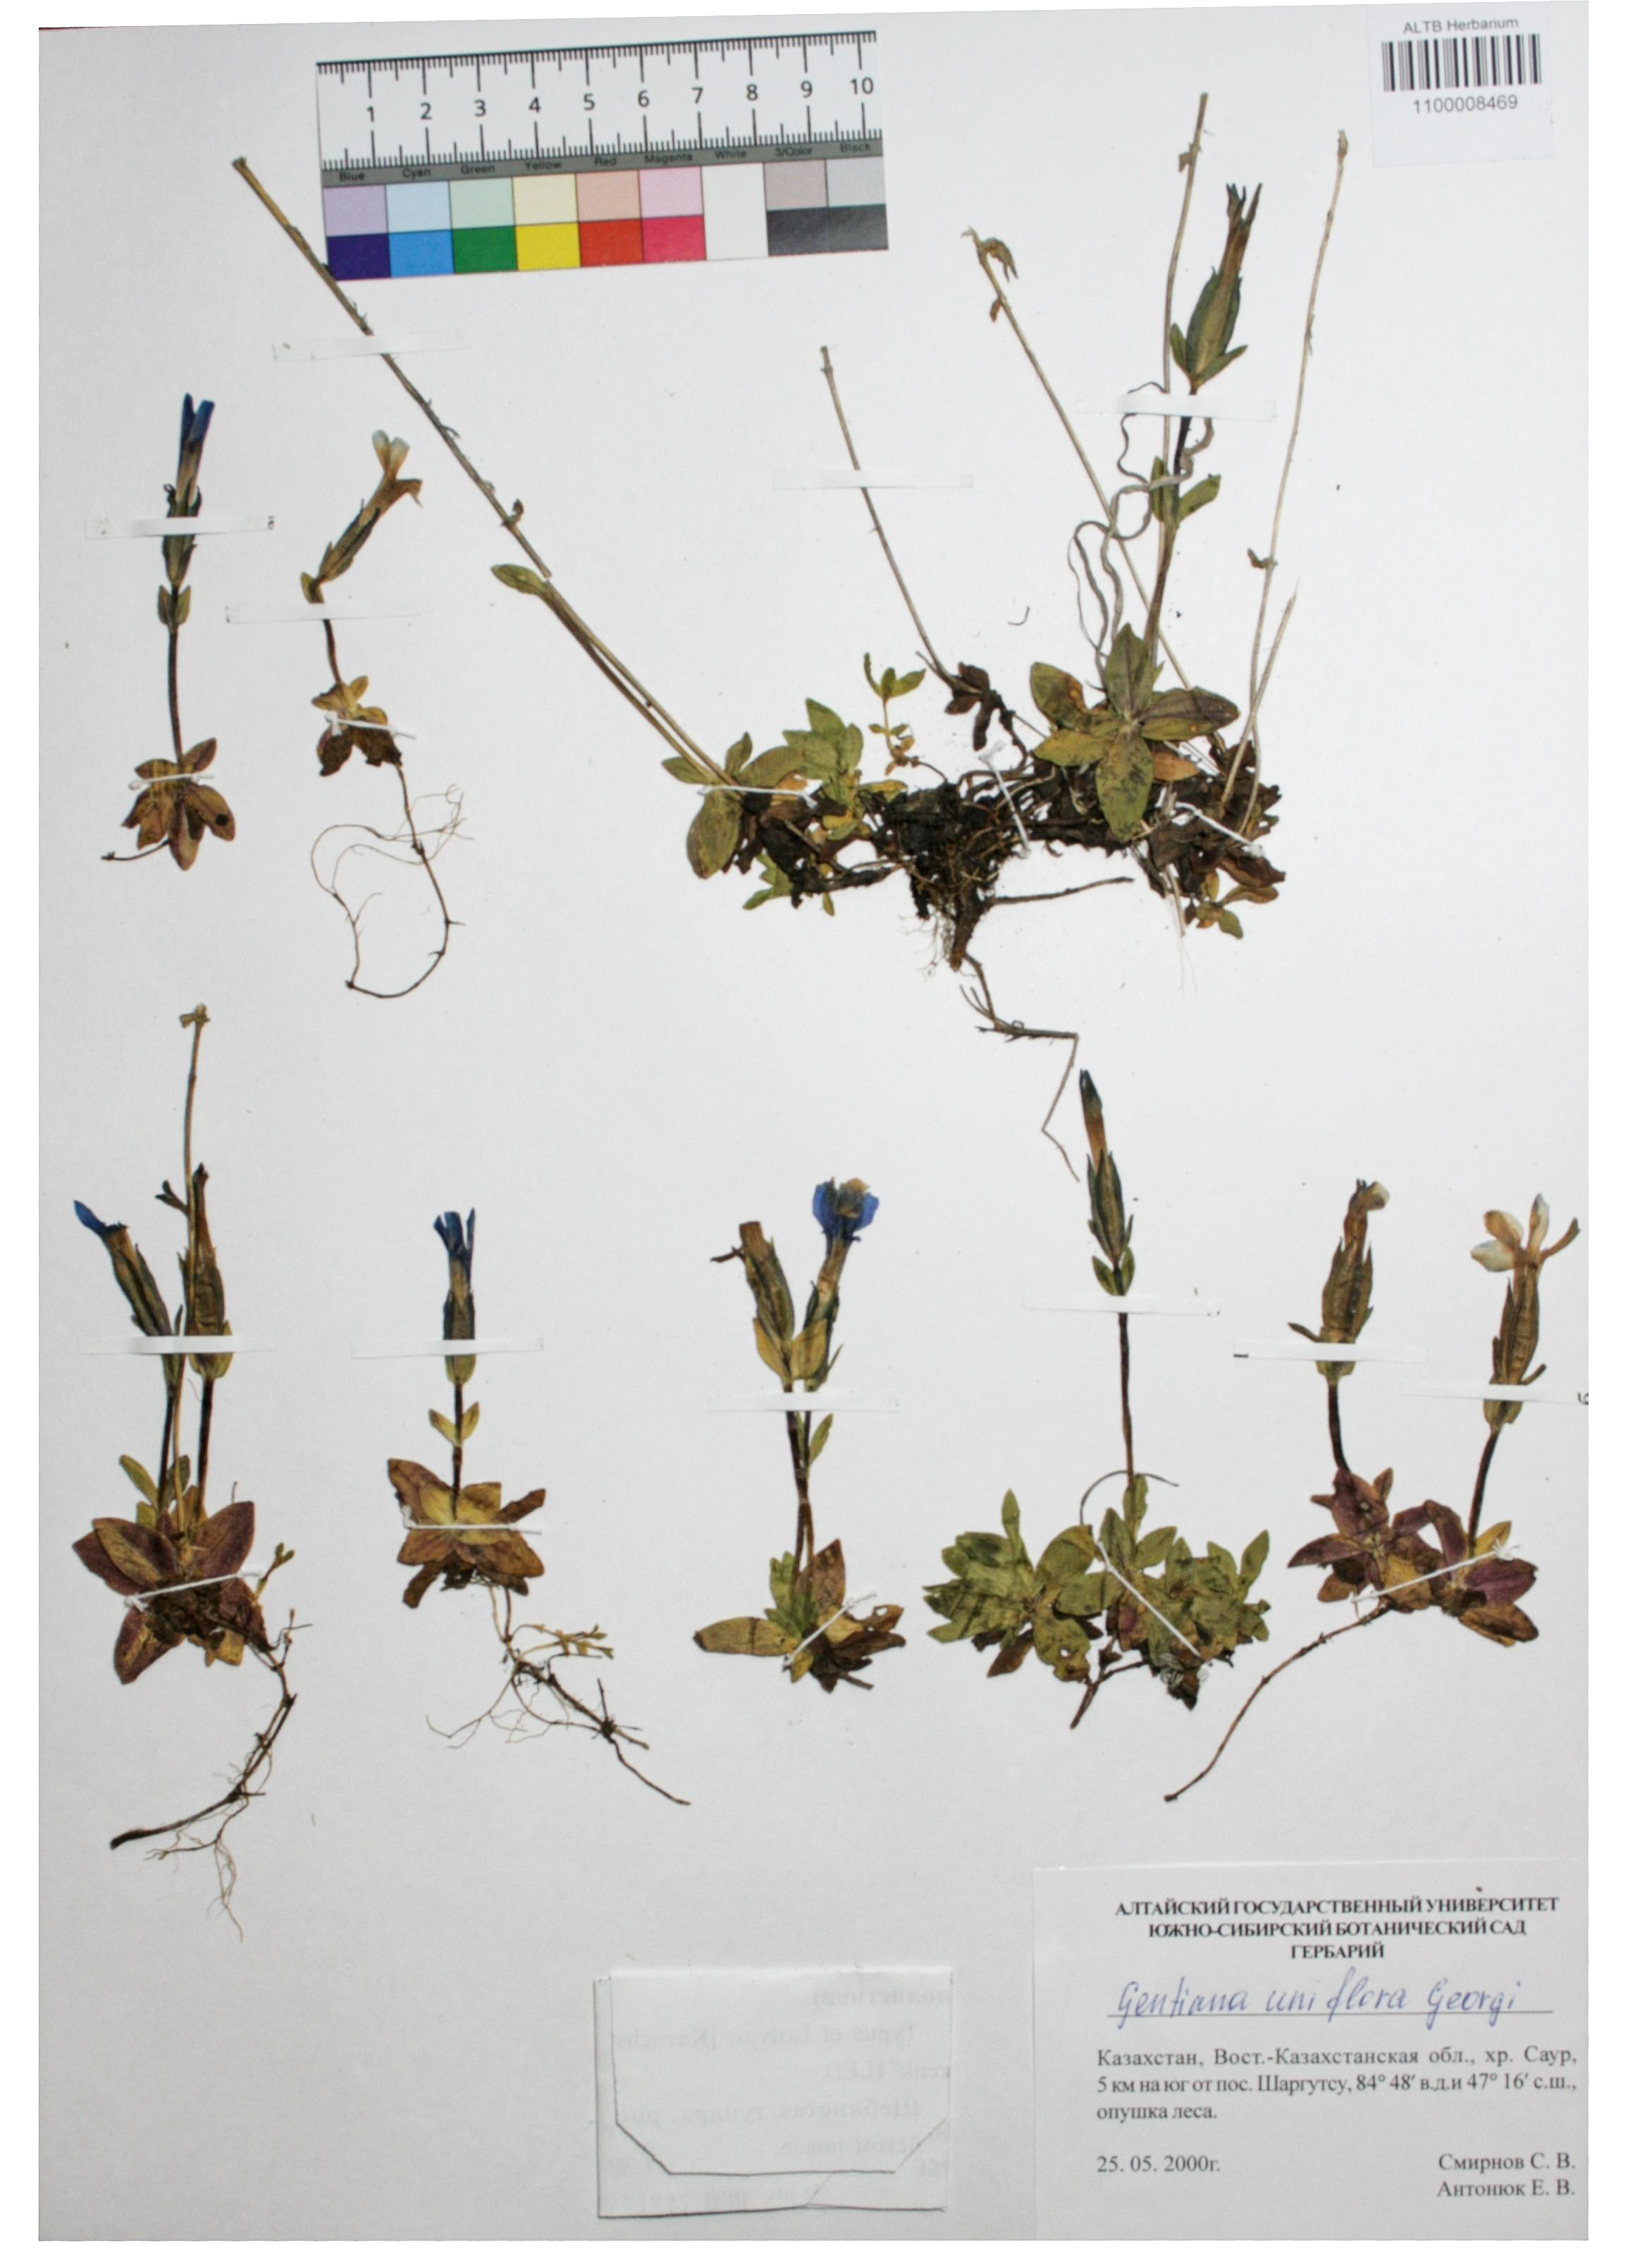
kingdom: Plantae
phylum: Tracheophyta
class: Magnoliopsida
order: Gentianales
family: Gentianaceae
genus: Gentiana
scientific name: Gentiana grandiflora
